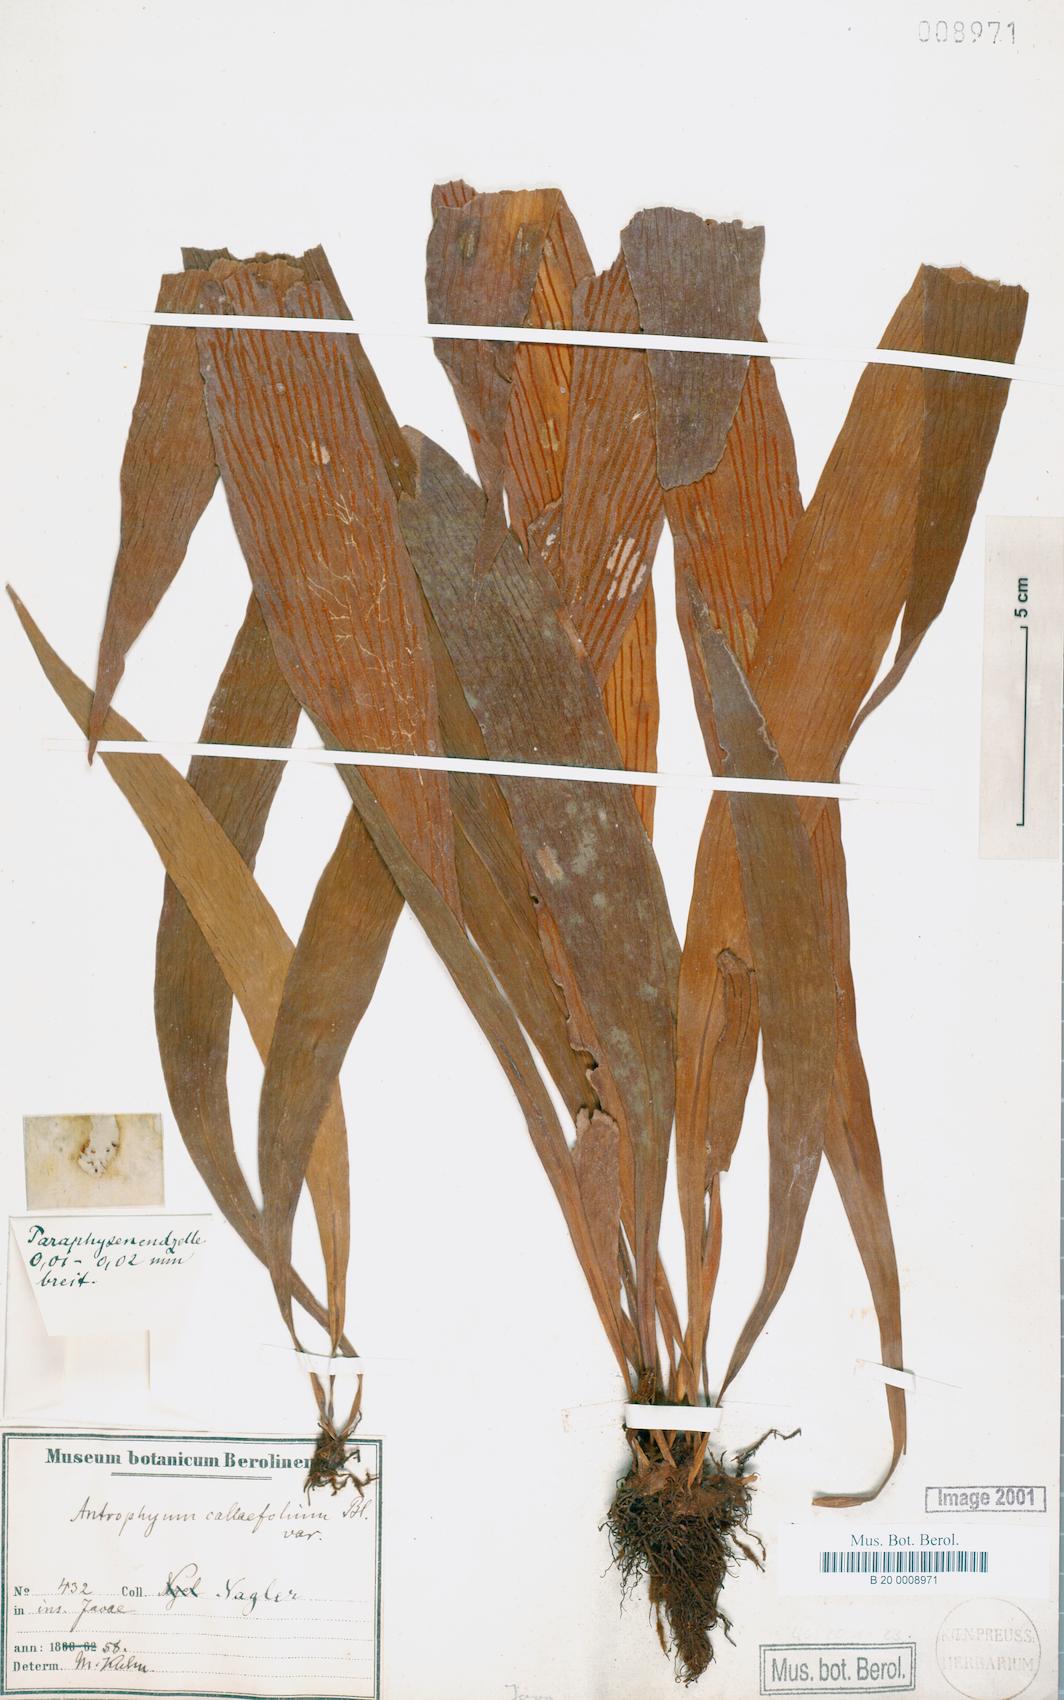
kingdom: Plantae
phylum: Tracheophyta
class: Polypodiopsida
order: Polypodiales
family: Pteridaceae
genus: Antrophyum
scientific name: Antrophyum callifolium
